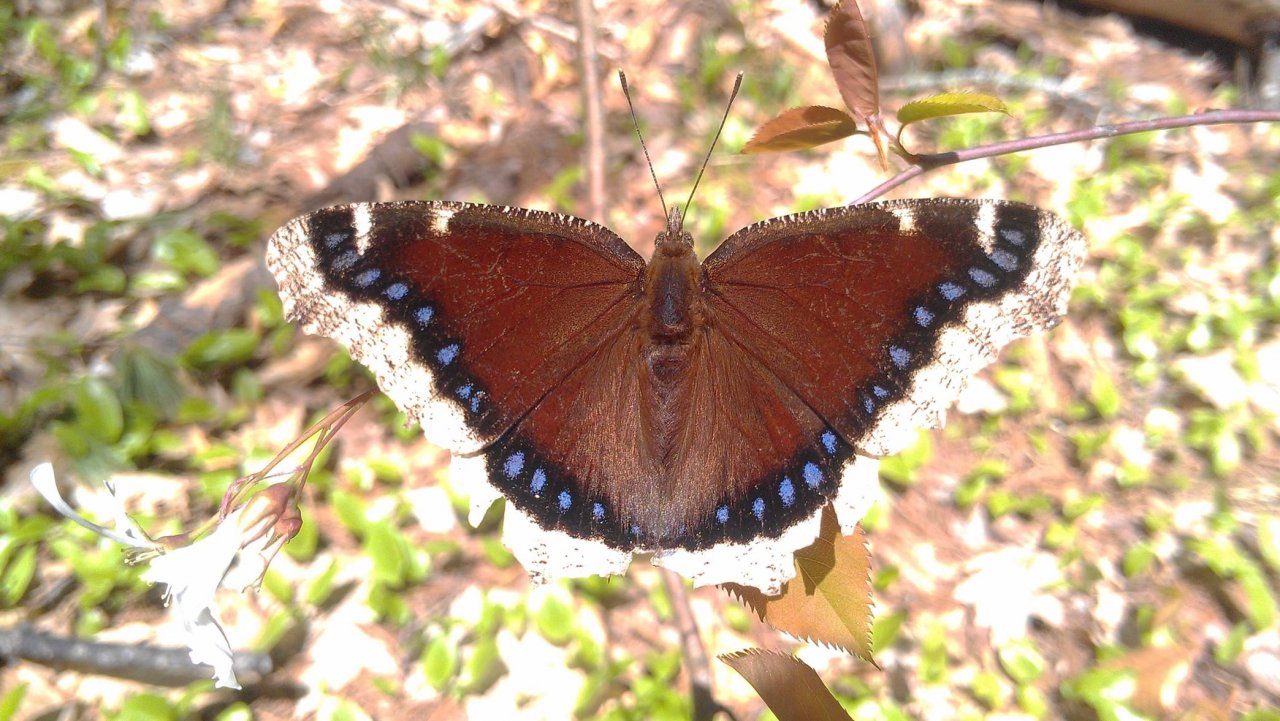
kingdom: Animalia
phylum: Arthropoda
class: Insecta
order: Lepidoptera
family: Nymphalidae
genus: Nymphalis
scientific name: Nymphalis antiopa
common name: Mourning Cloak
